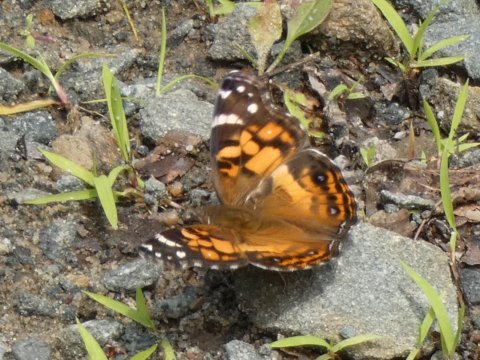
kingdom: Animalia
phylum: Arthropoda
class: Insecta
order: Lepidoptera
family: Nymphalidae
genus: Vanessa
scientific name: Vanessa virginiensis
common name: American Lady
